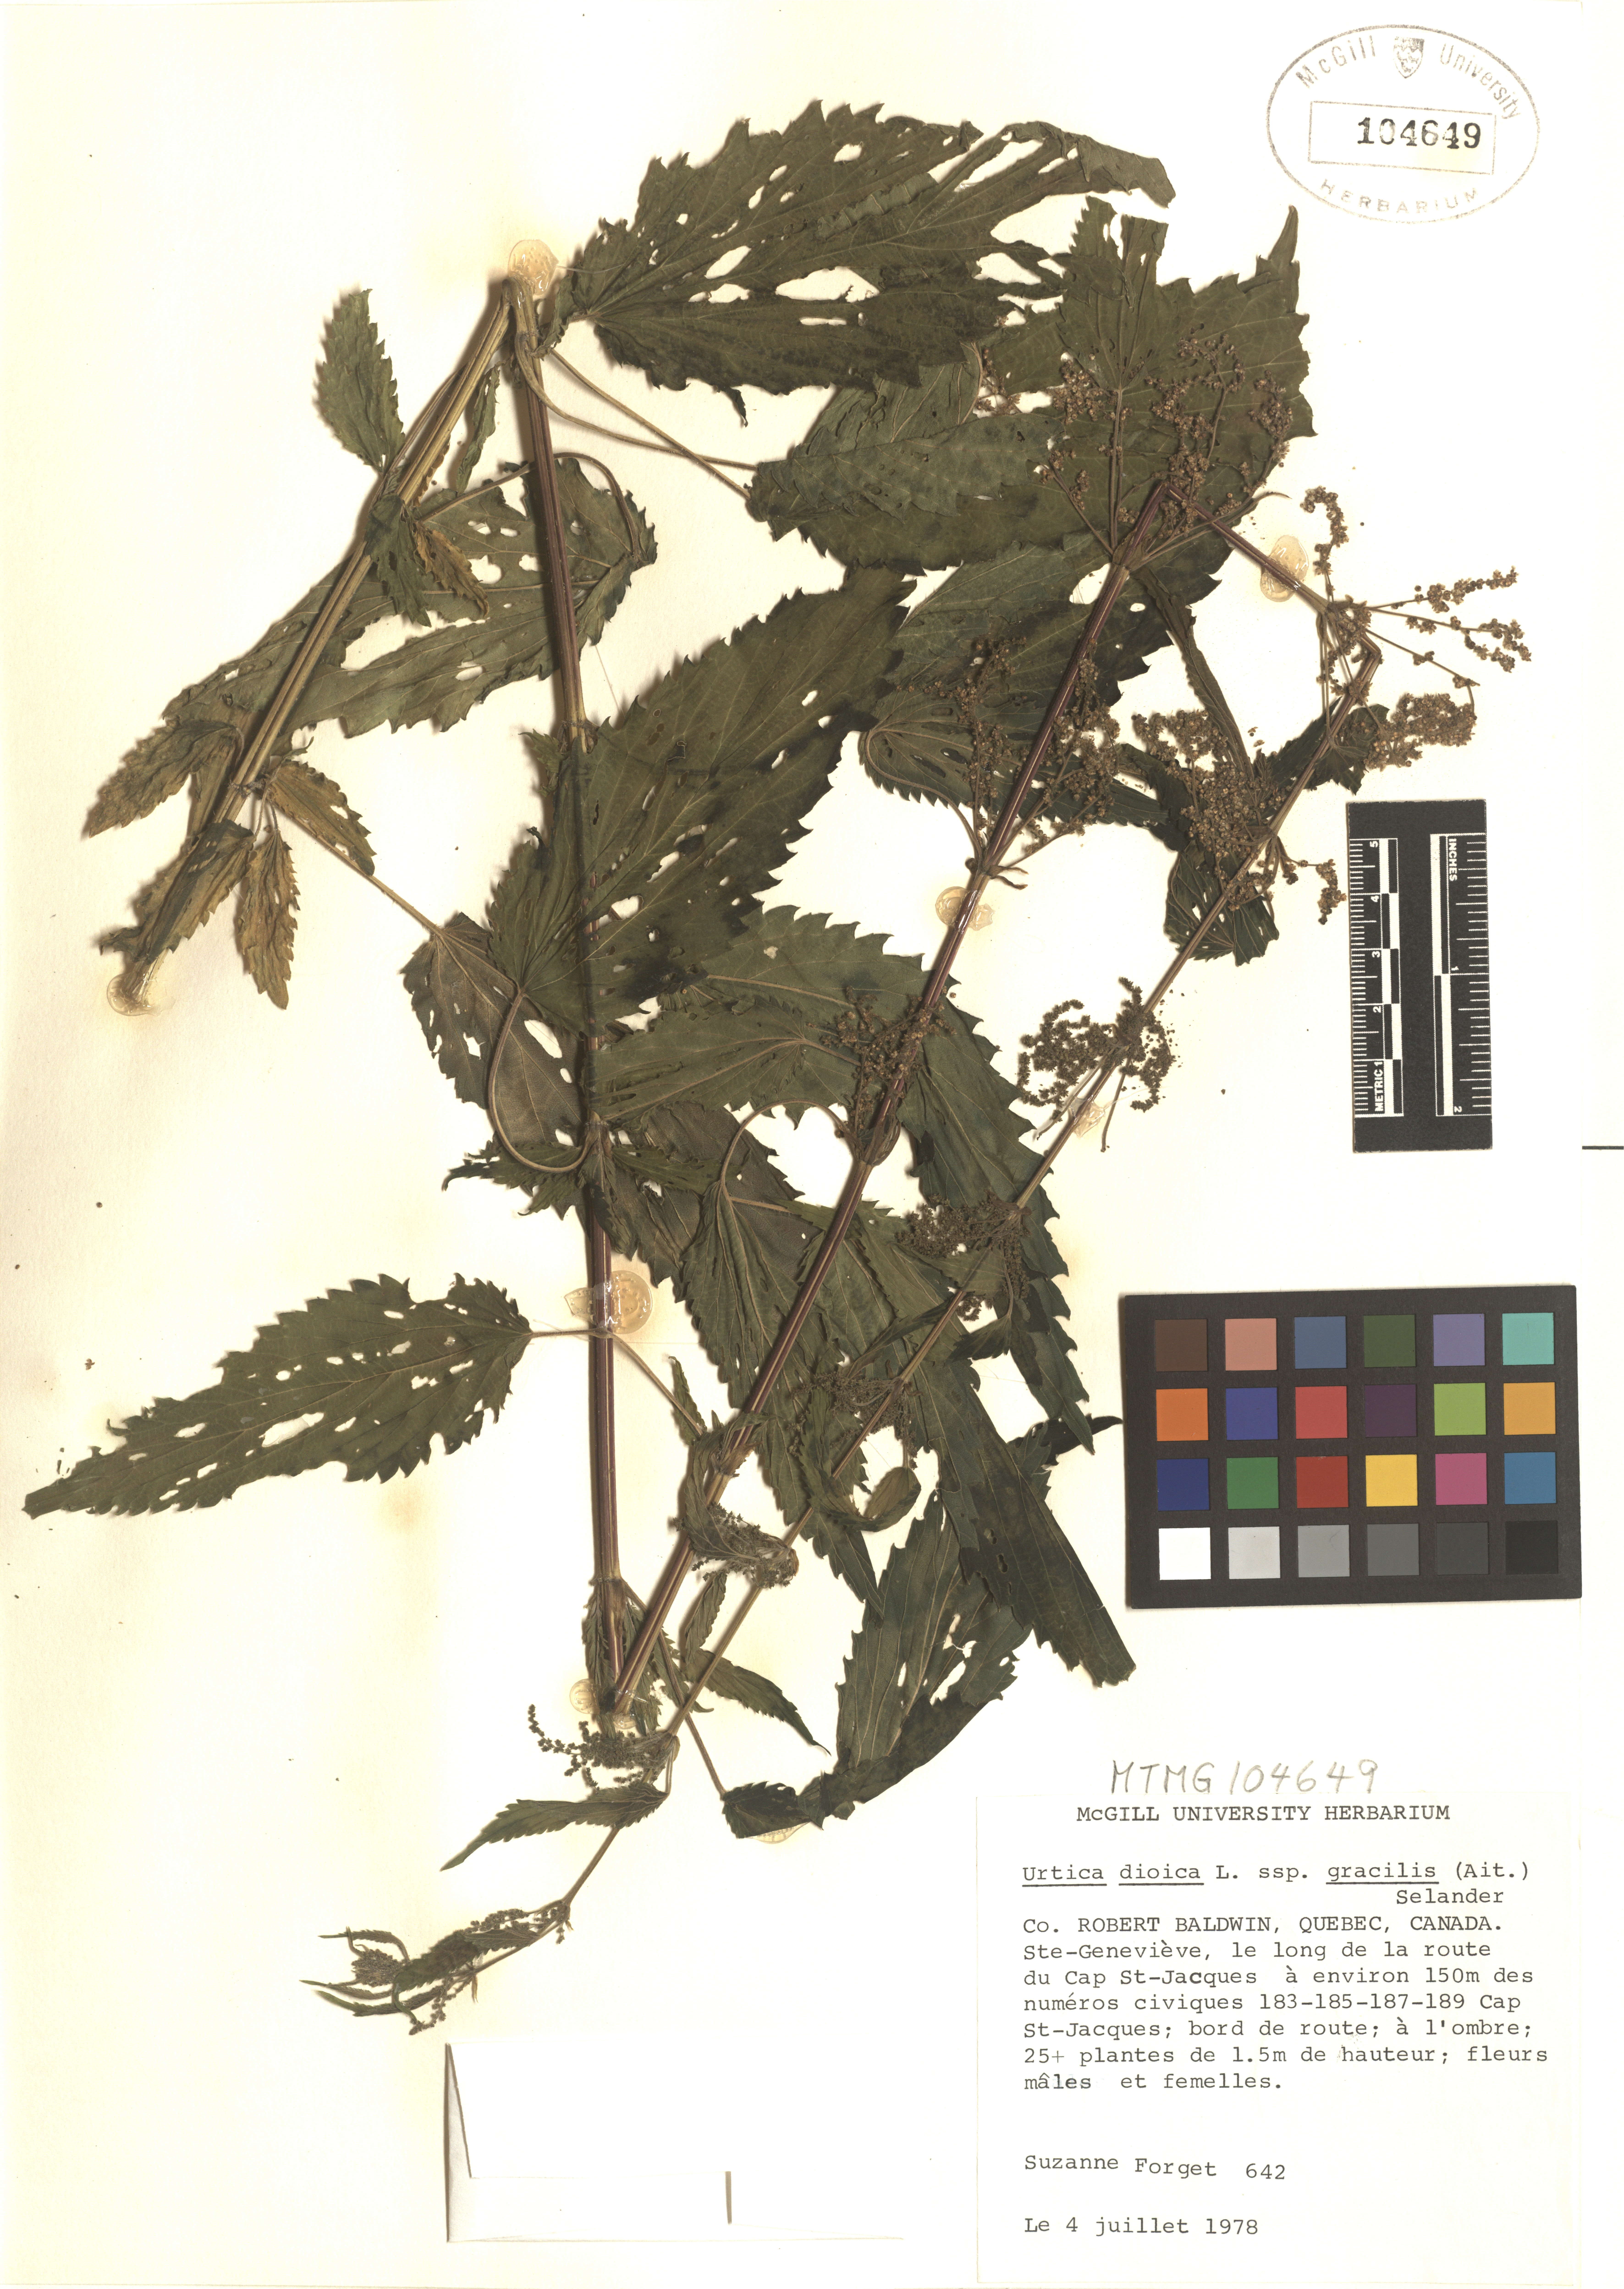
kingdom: Plantae
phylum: Tracheophyta
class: Magnoliopsida
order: Rosales
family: Urticaceae
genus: Urtica
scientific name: Urtica gracilis
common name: Slender stinging nettle
